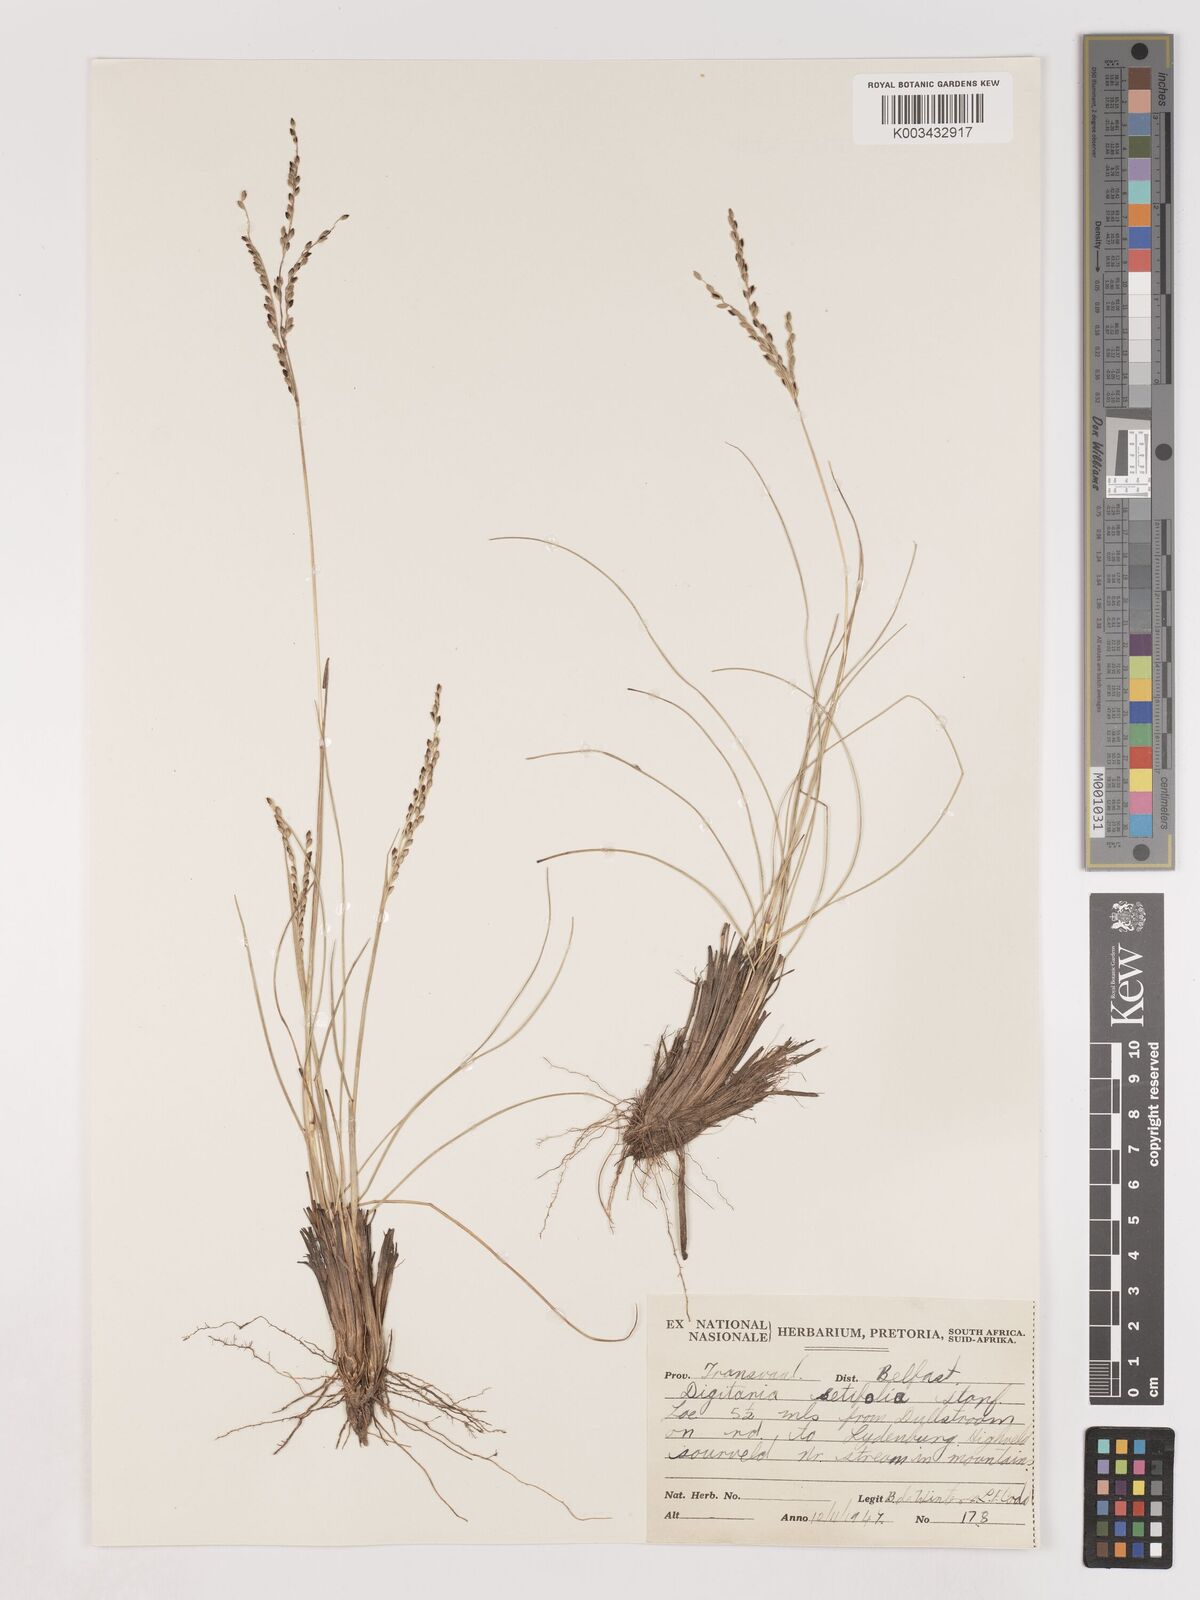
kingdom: Plantae
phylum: Tracheophyta
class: Liliopsida
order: Poales
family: Poaceae
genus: Digitaria
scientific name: Digitaria setifolia
